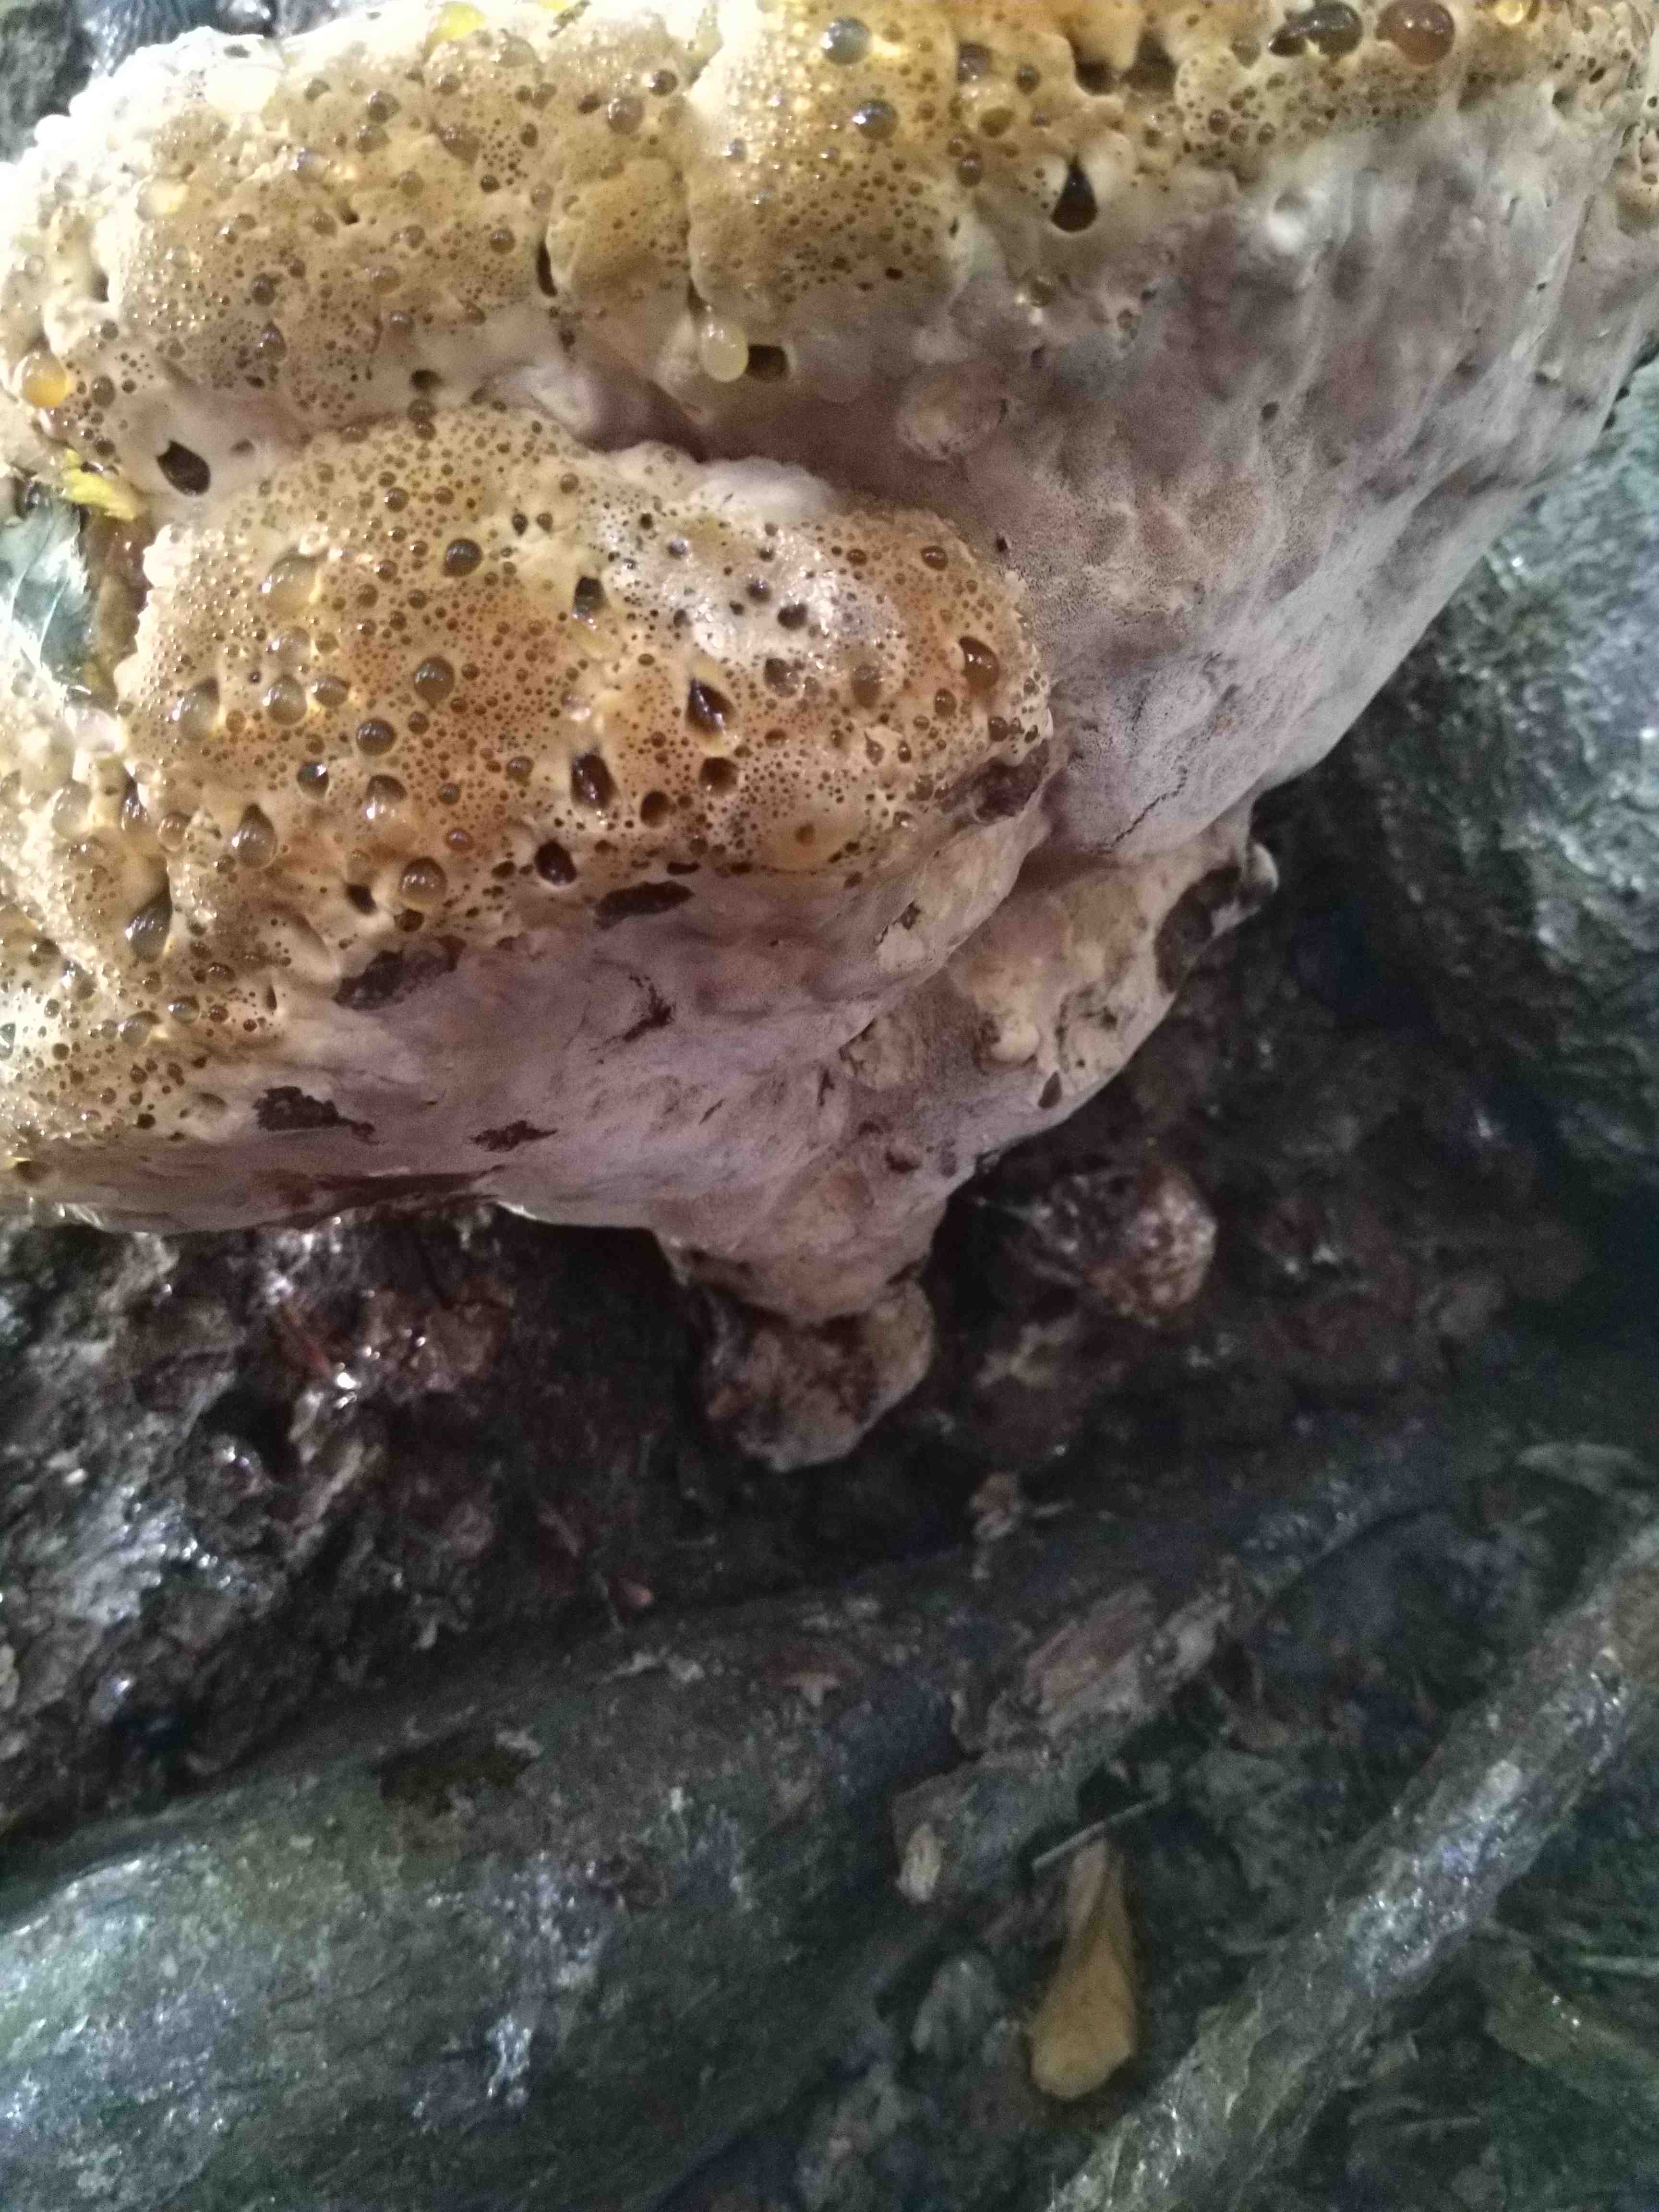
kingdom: Fungi
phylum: Basidiomycota
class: Agaricomycetes
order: Hymenochaetales
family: Hymenochaetaceae
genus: Pseudoinonotus
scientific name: Pseudoinonotus dryadeus
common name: ege-spejlporesvamp
